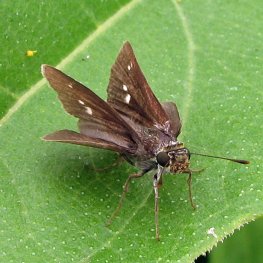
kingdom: Animalia
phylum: Arthropoda
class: Insecta
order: Lepidoptera
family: Hesperiidae
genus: Polites
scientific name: Polites egeremet
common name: Northern Broken-Dash
